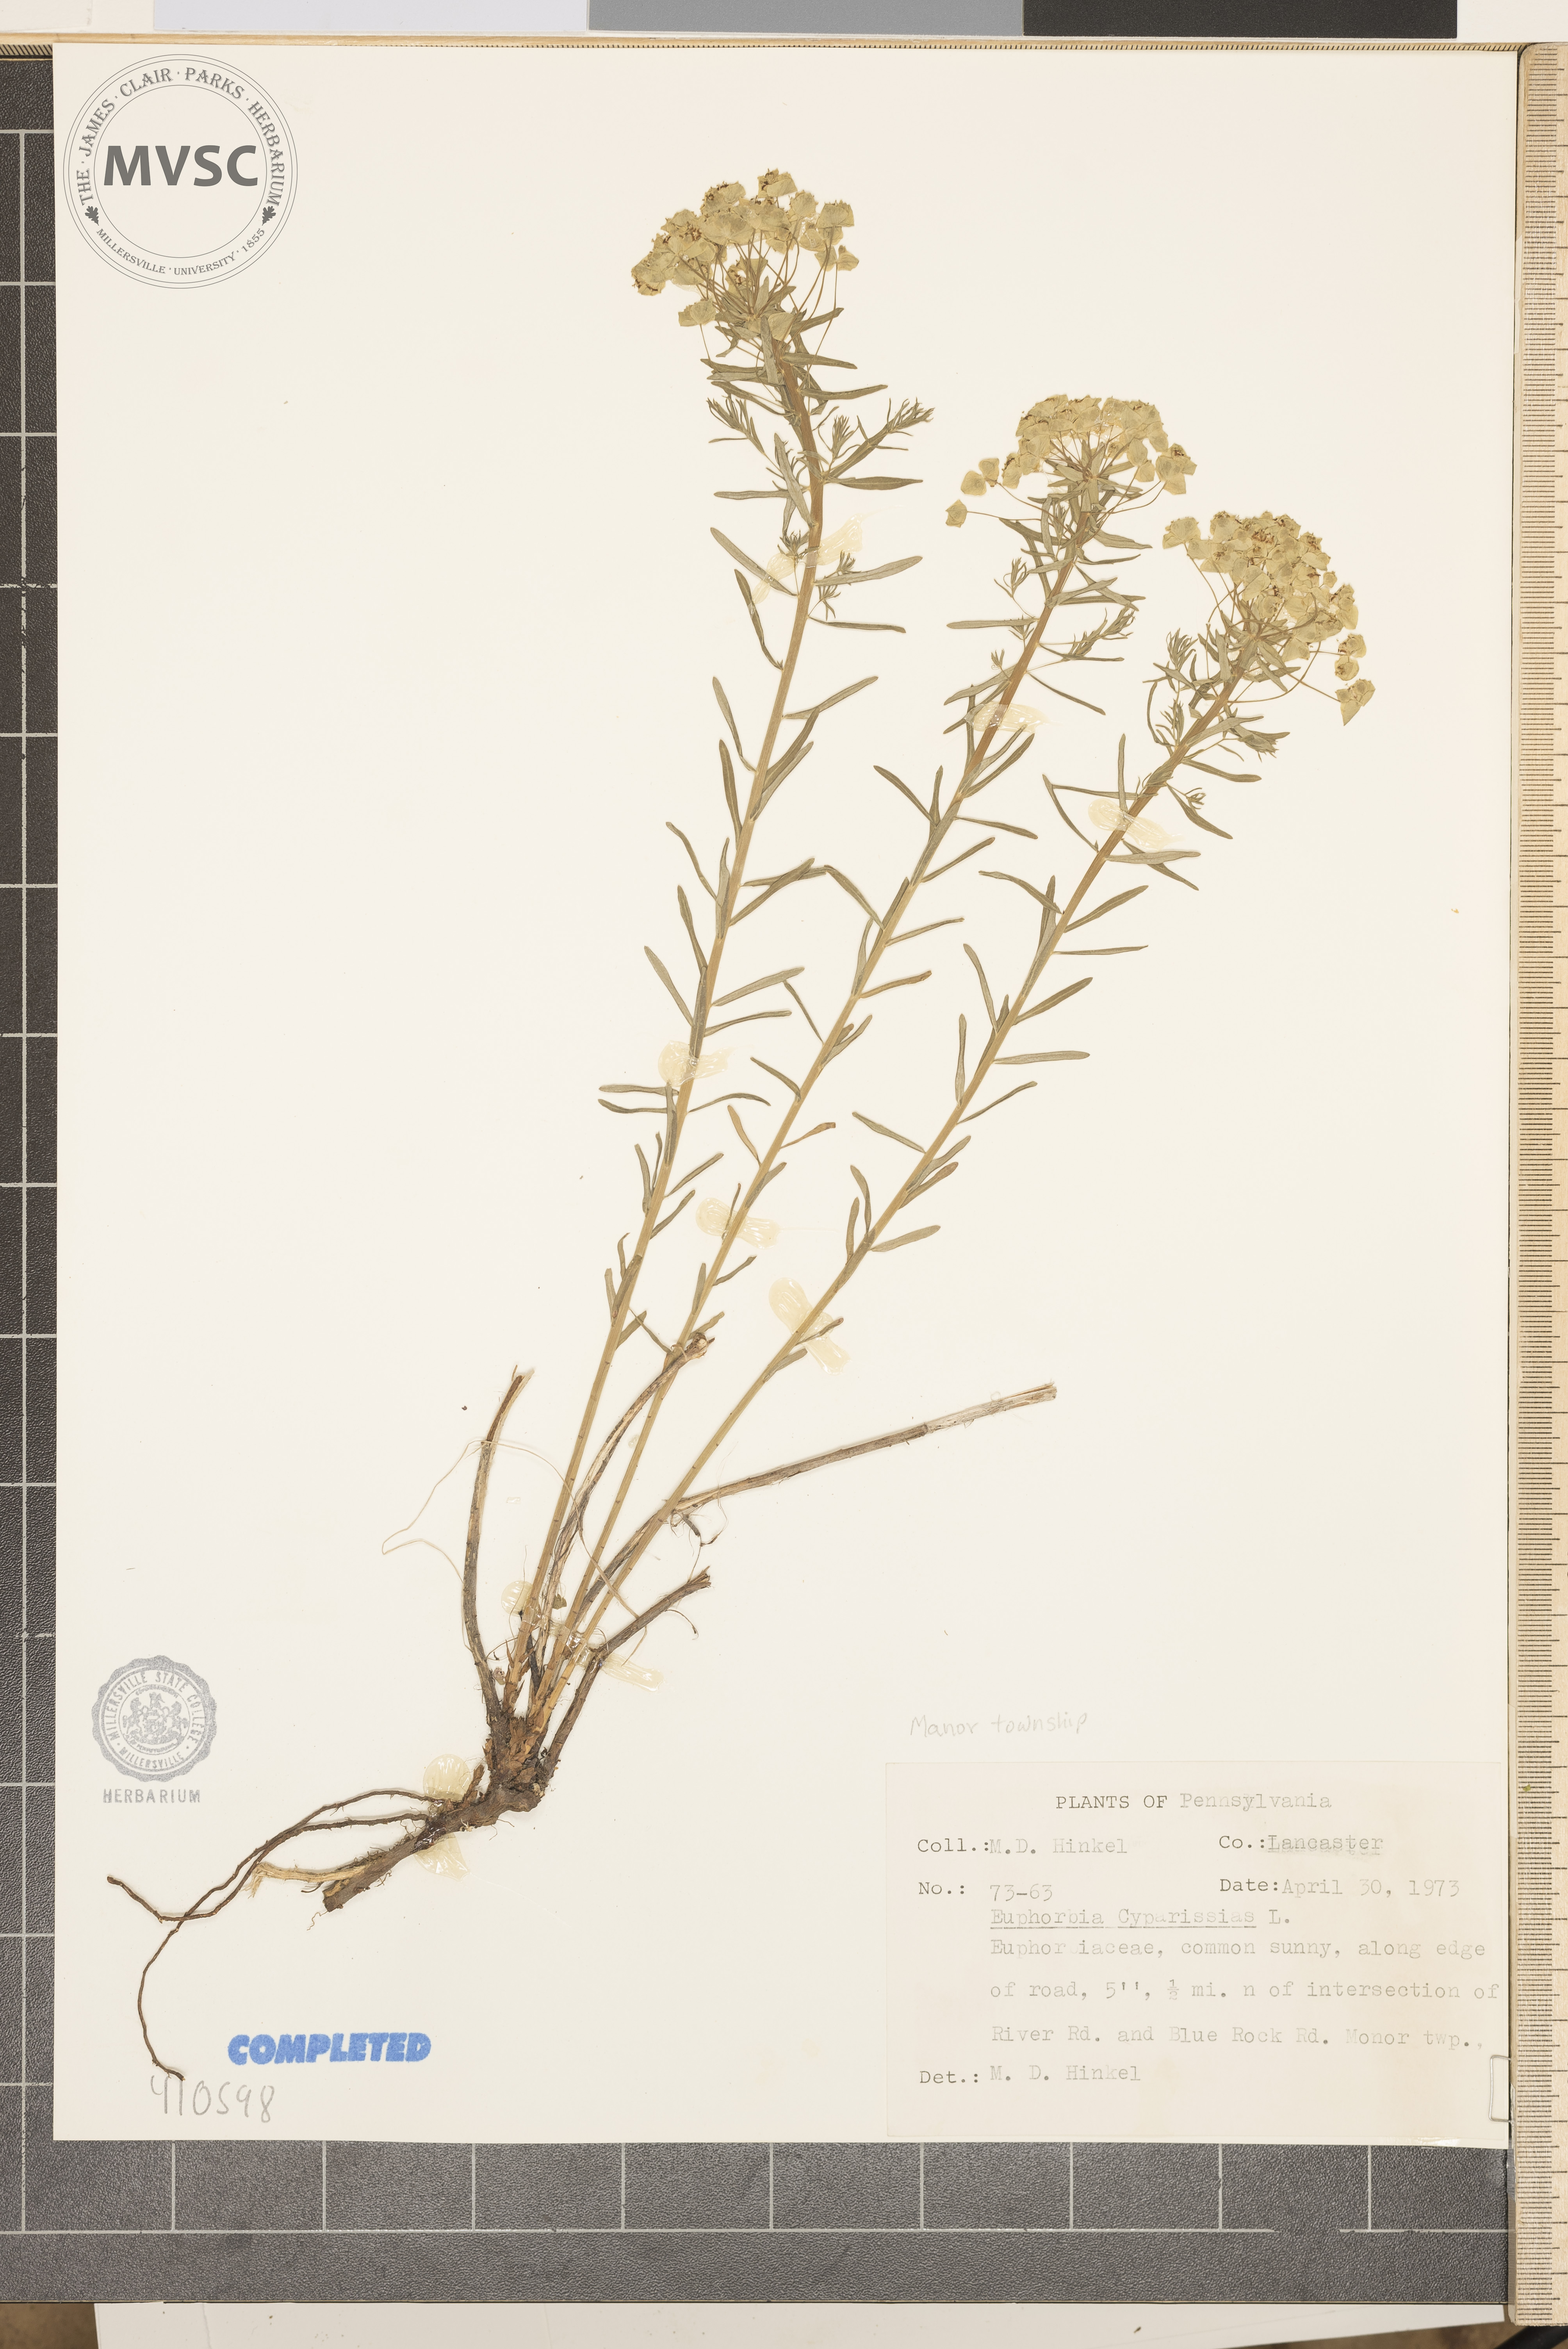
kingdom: Plantae
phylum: Tracheophyta
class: Magnoliopsida
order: Malpighiales
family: Euphorbiaceae
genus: Euphorbia
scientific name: Euphorbia cyparissias
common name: Cypress Spurge
